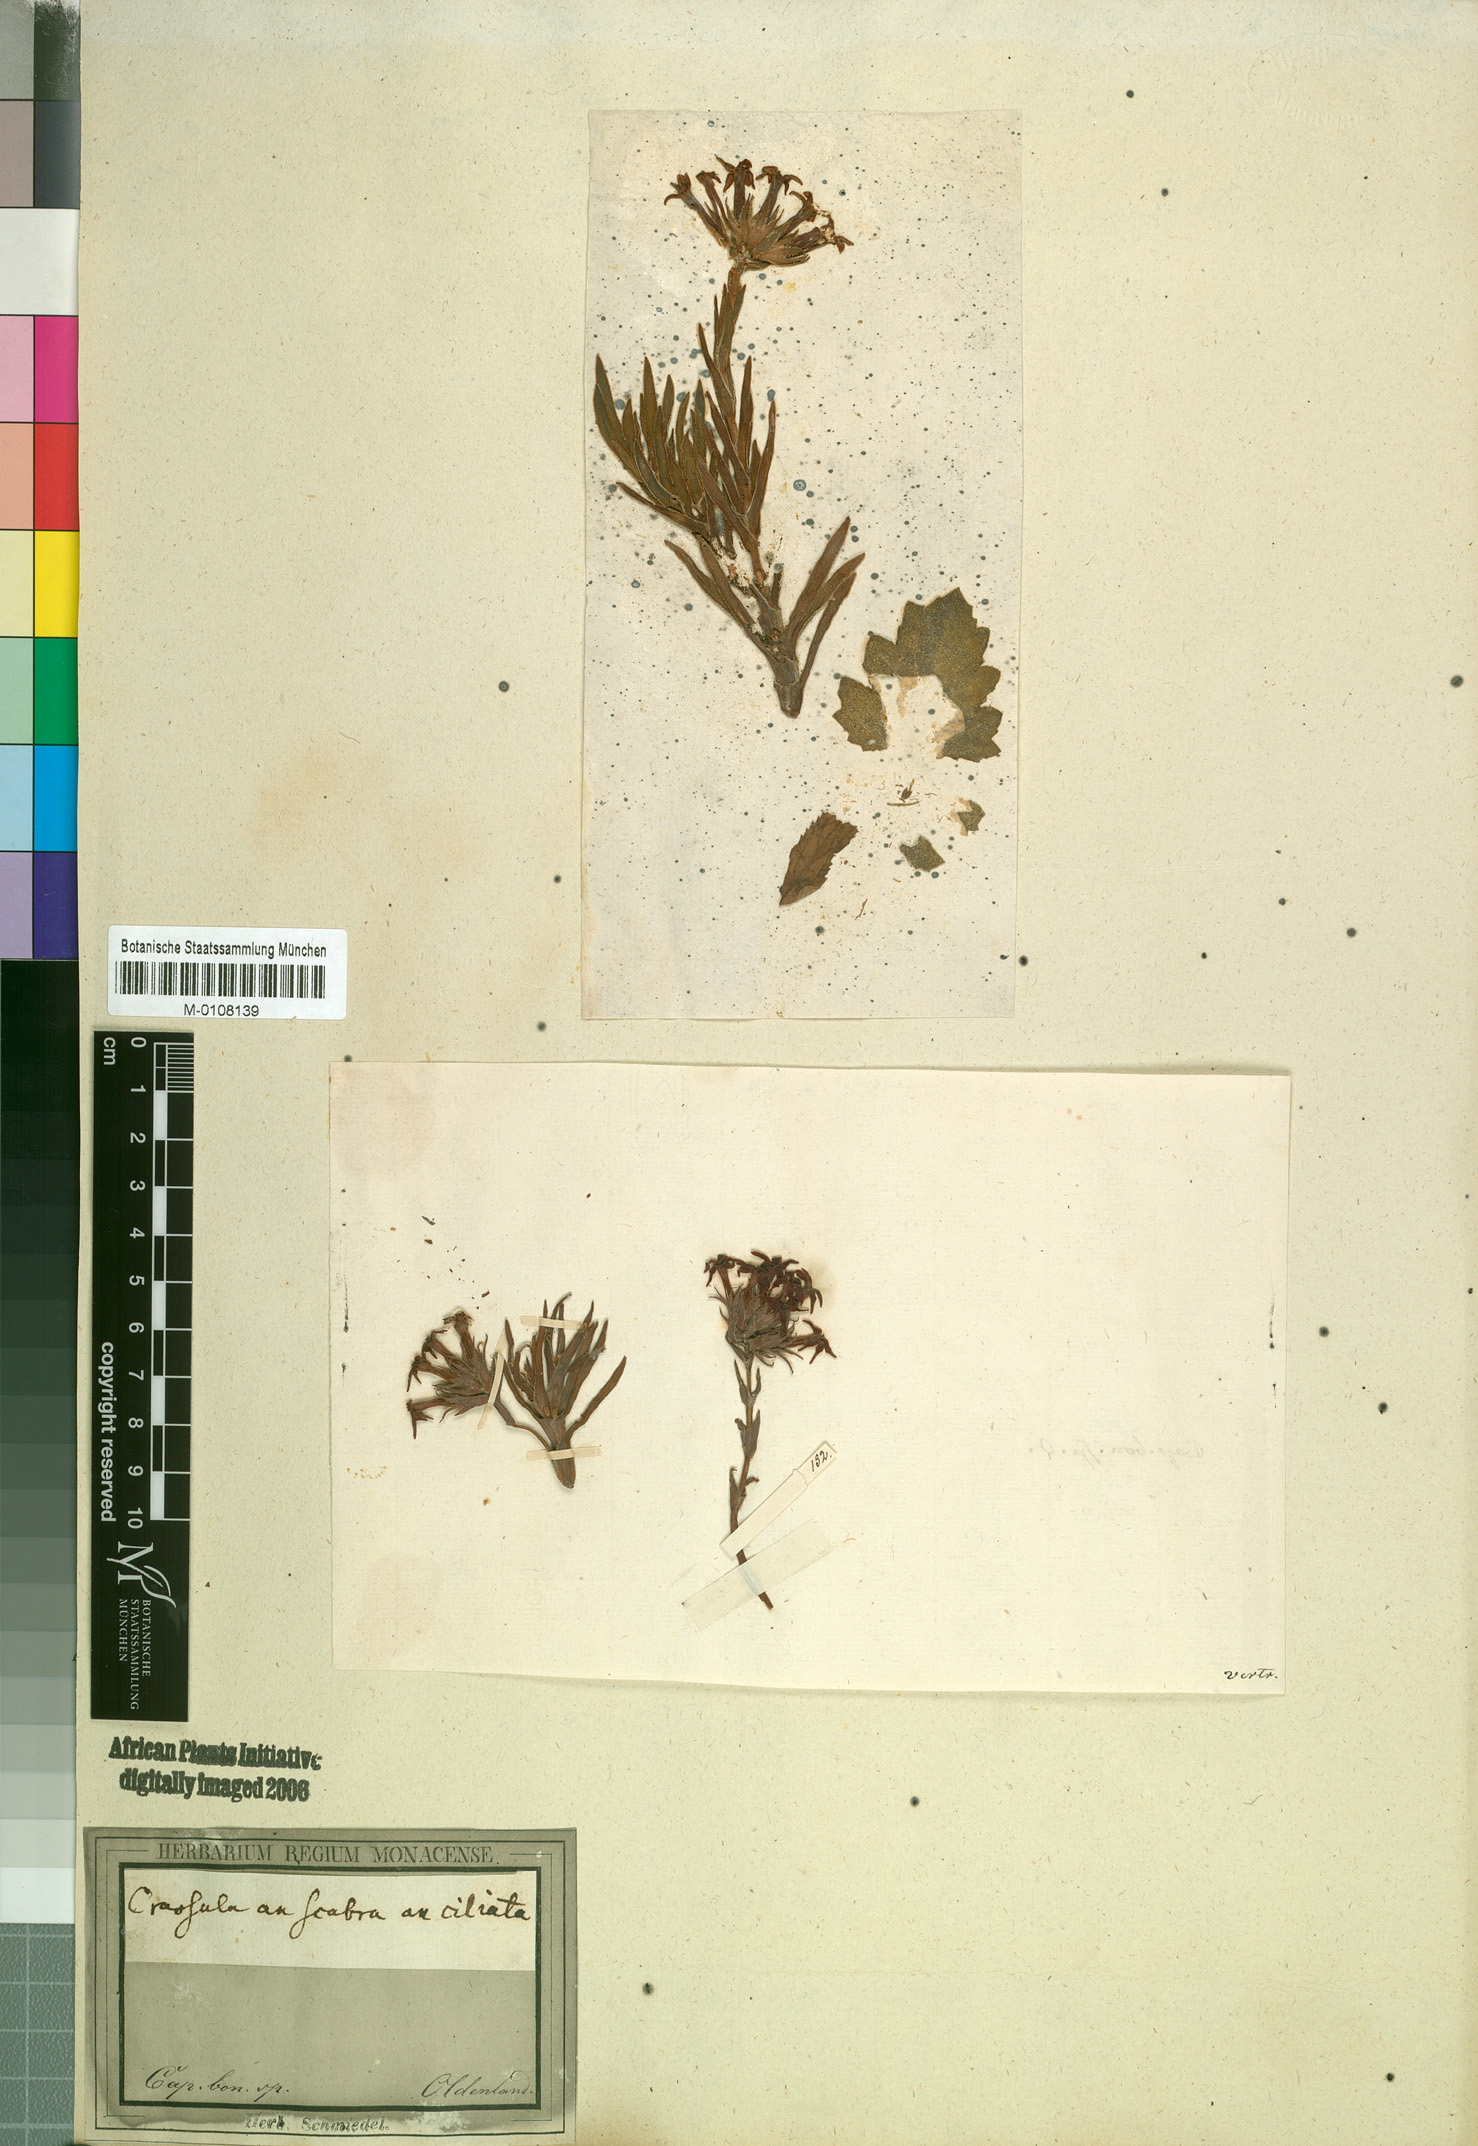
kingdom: Plantae
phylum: Tracheophyta
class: Magnoliopsida
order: Saxifragales
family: Crassulaceae
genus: Crassula
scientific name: Crassula fascicularis
